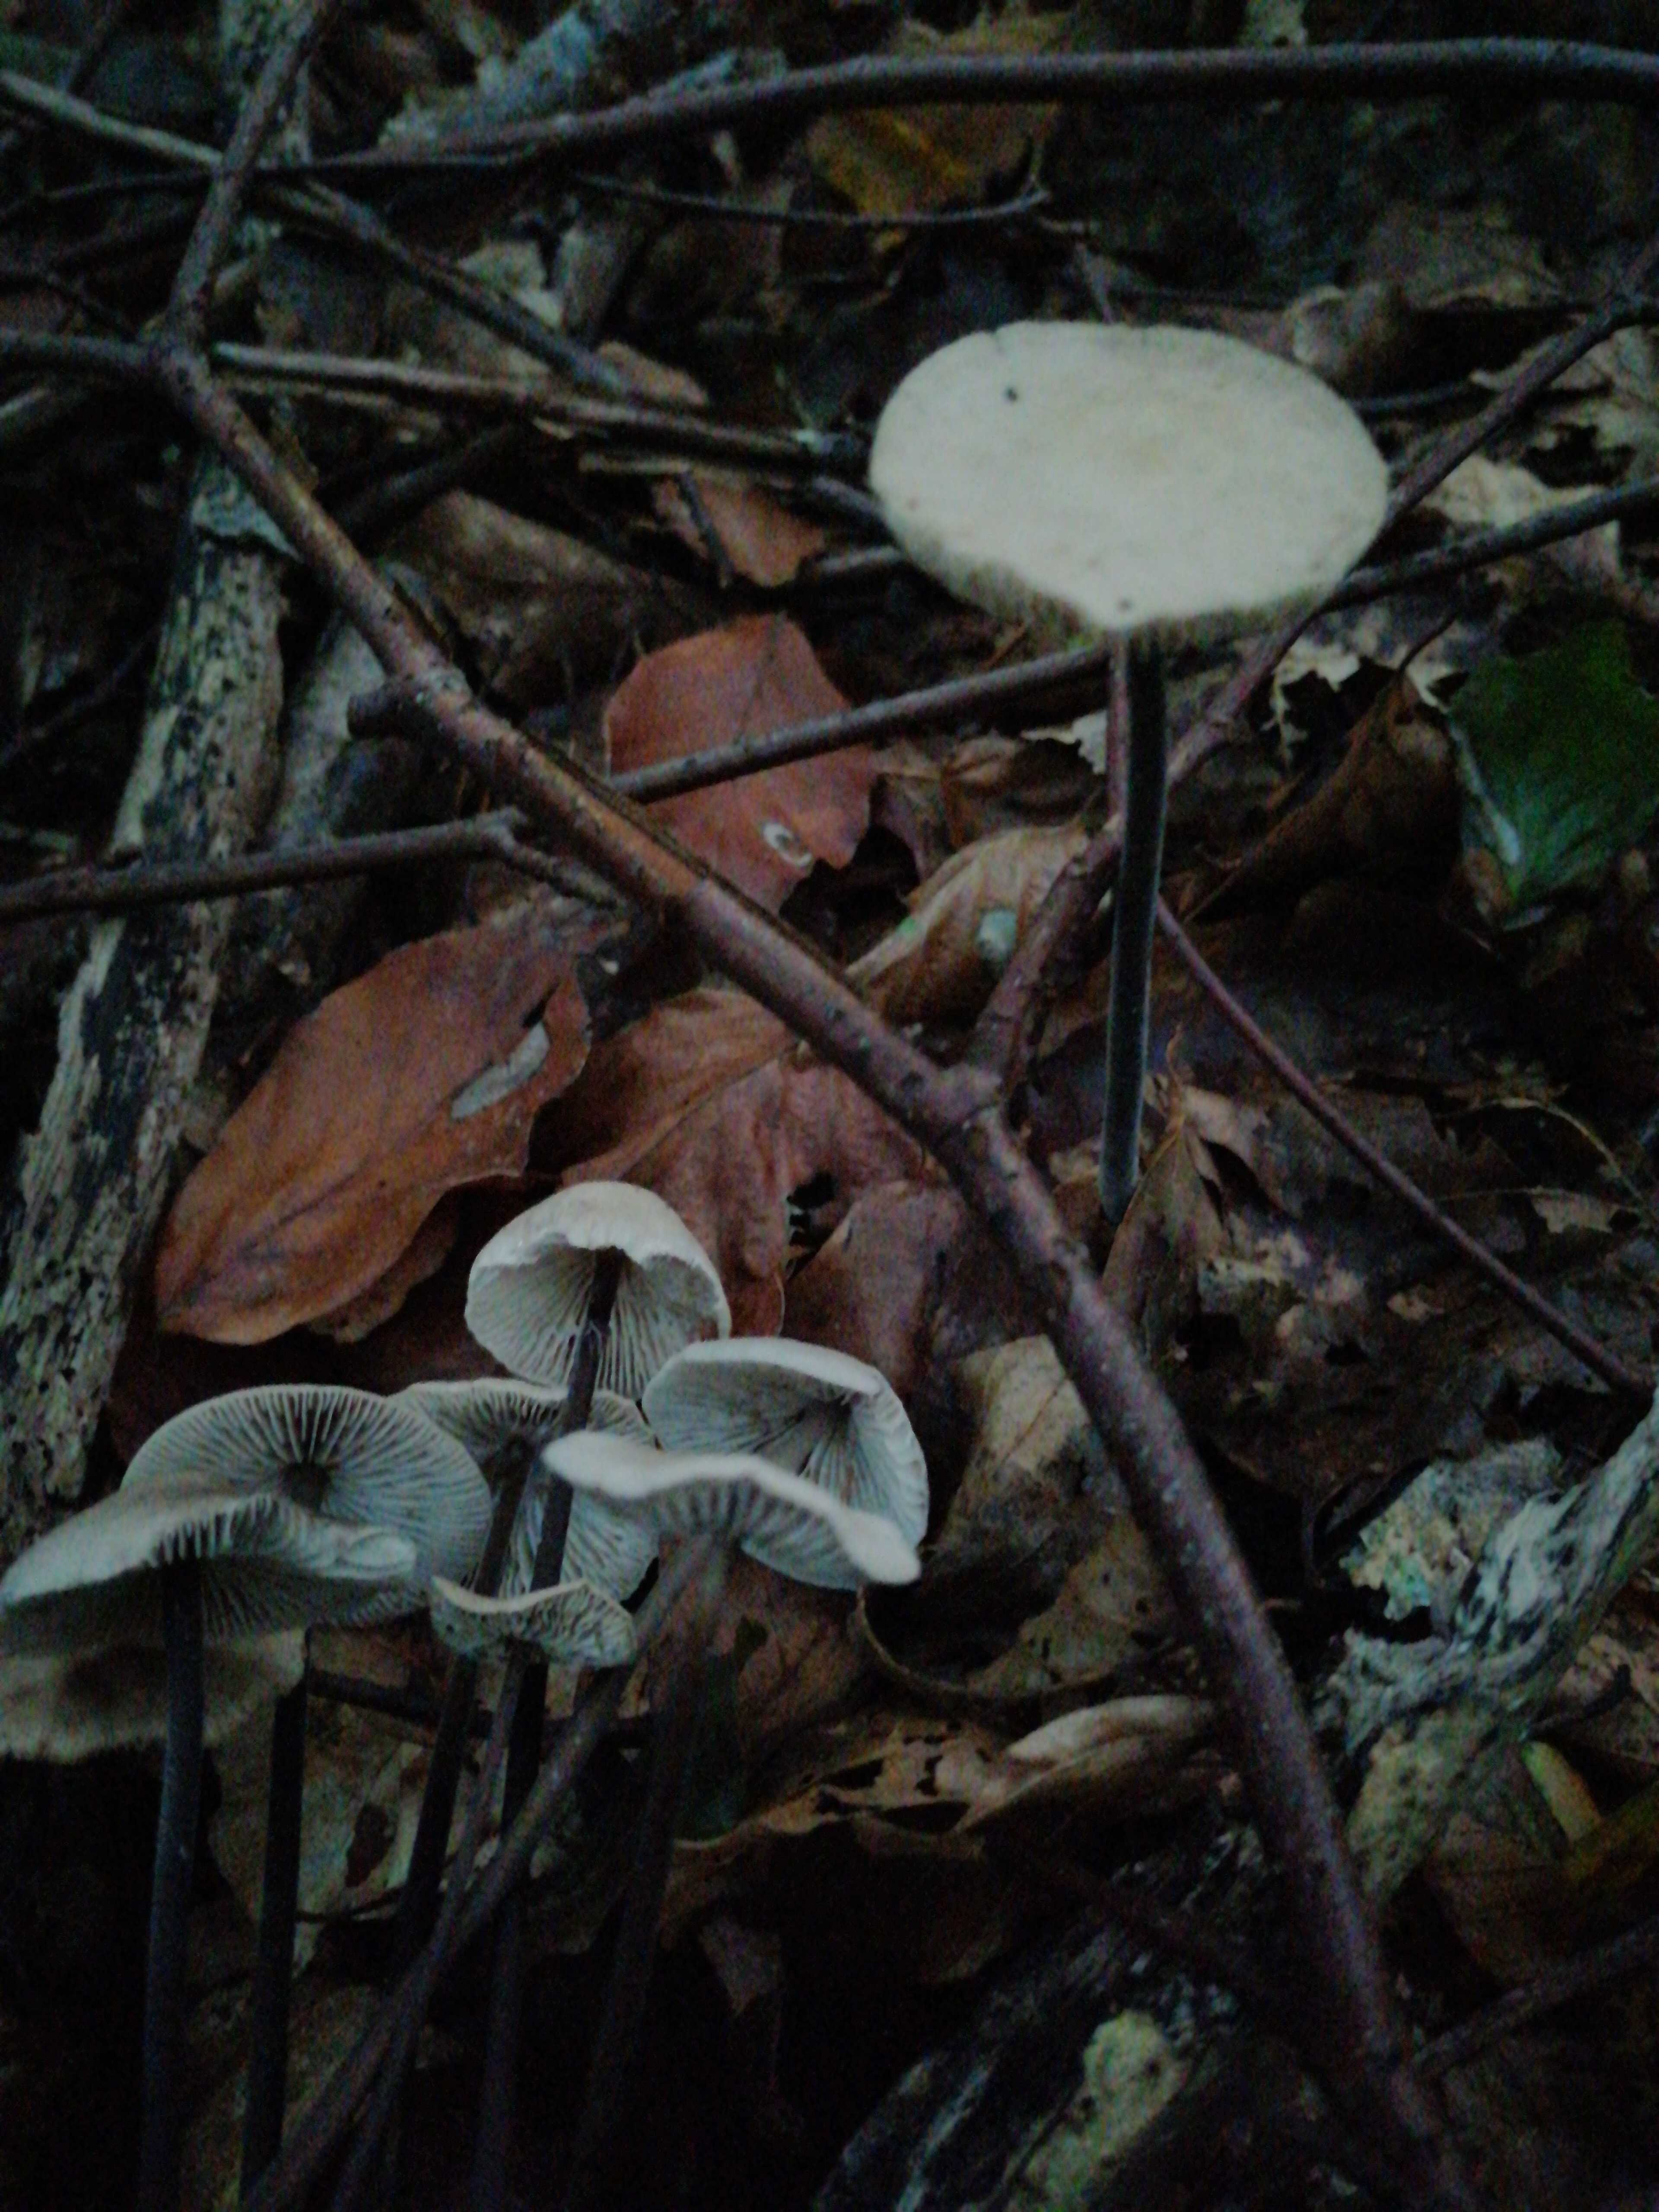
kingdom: Fungi
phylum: Basidiomycota
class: Agaricomycetes
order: Agaricales
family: Omphalotaceae
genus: Mycetinis
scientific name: Mycetinis alliaceus
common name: stor løghat
